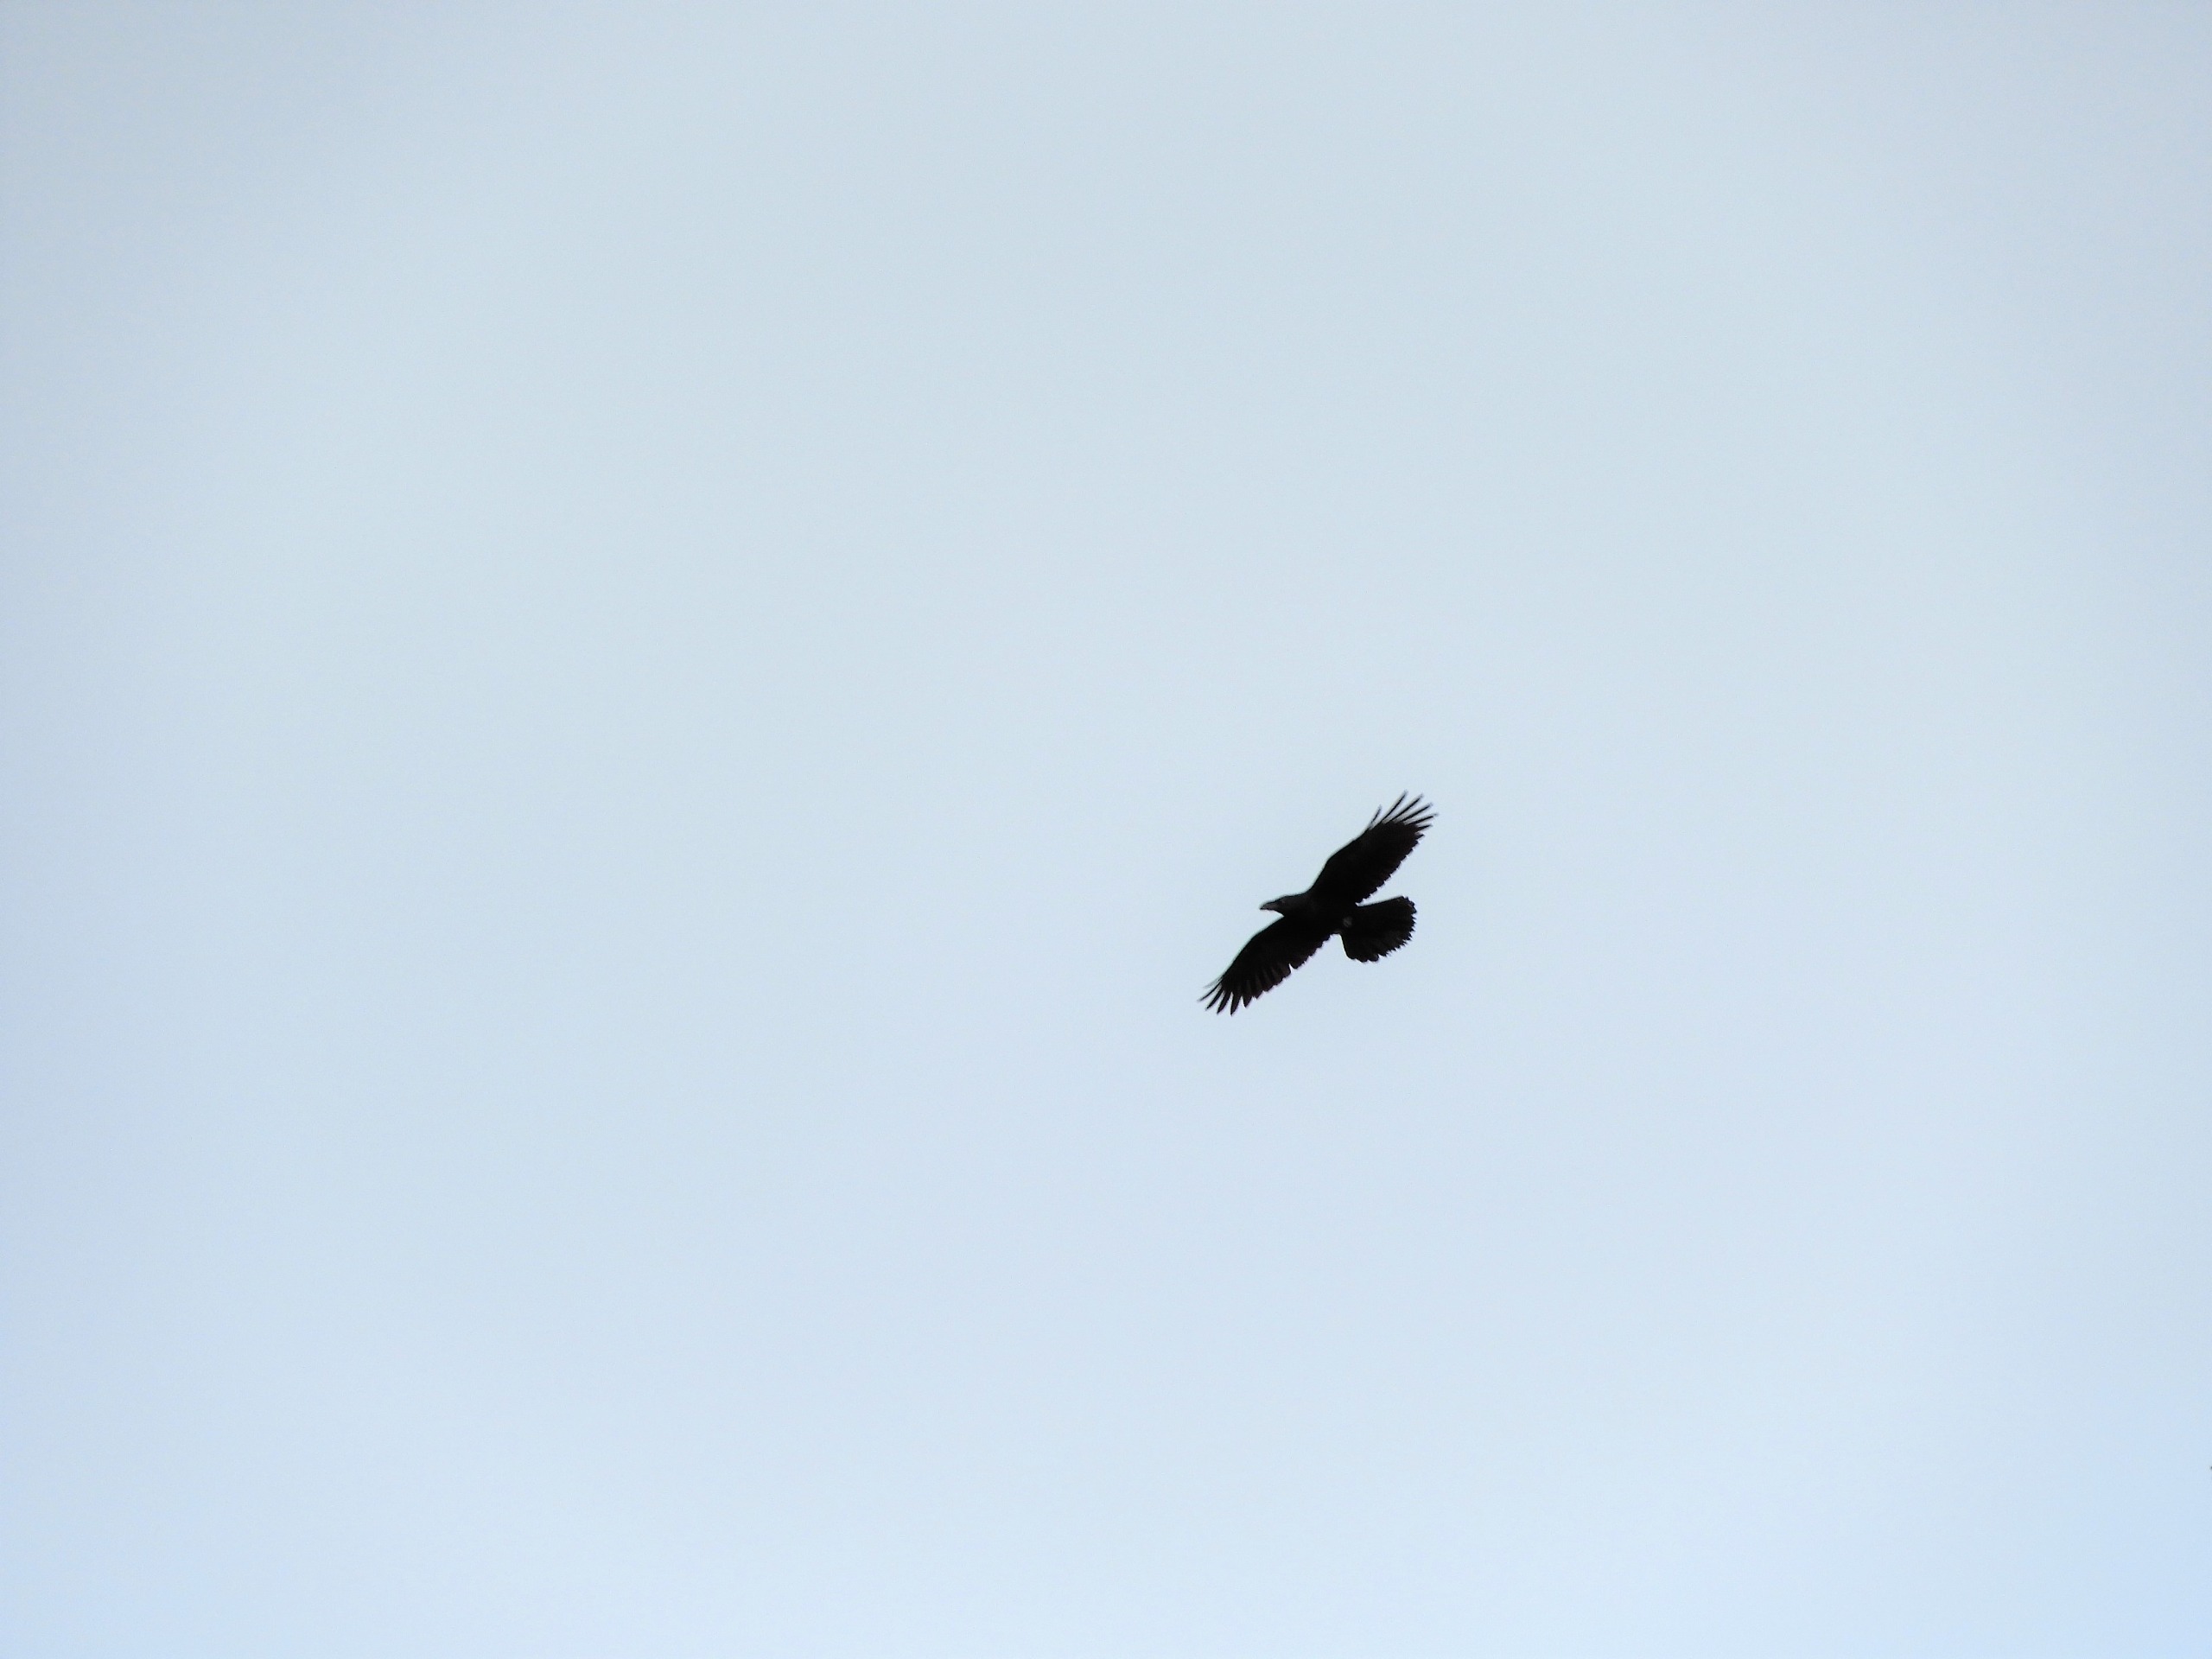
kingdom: Animalia
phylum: Chordata
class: Aves
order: Passeriformes
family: Corvidae
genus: Corvus
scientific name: Corvus corax
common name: Ravn
